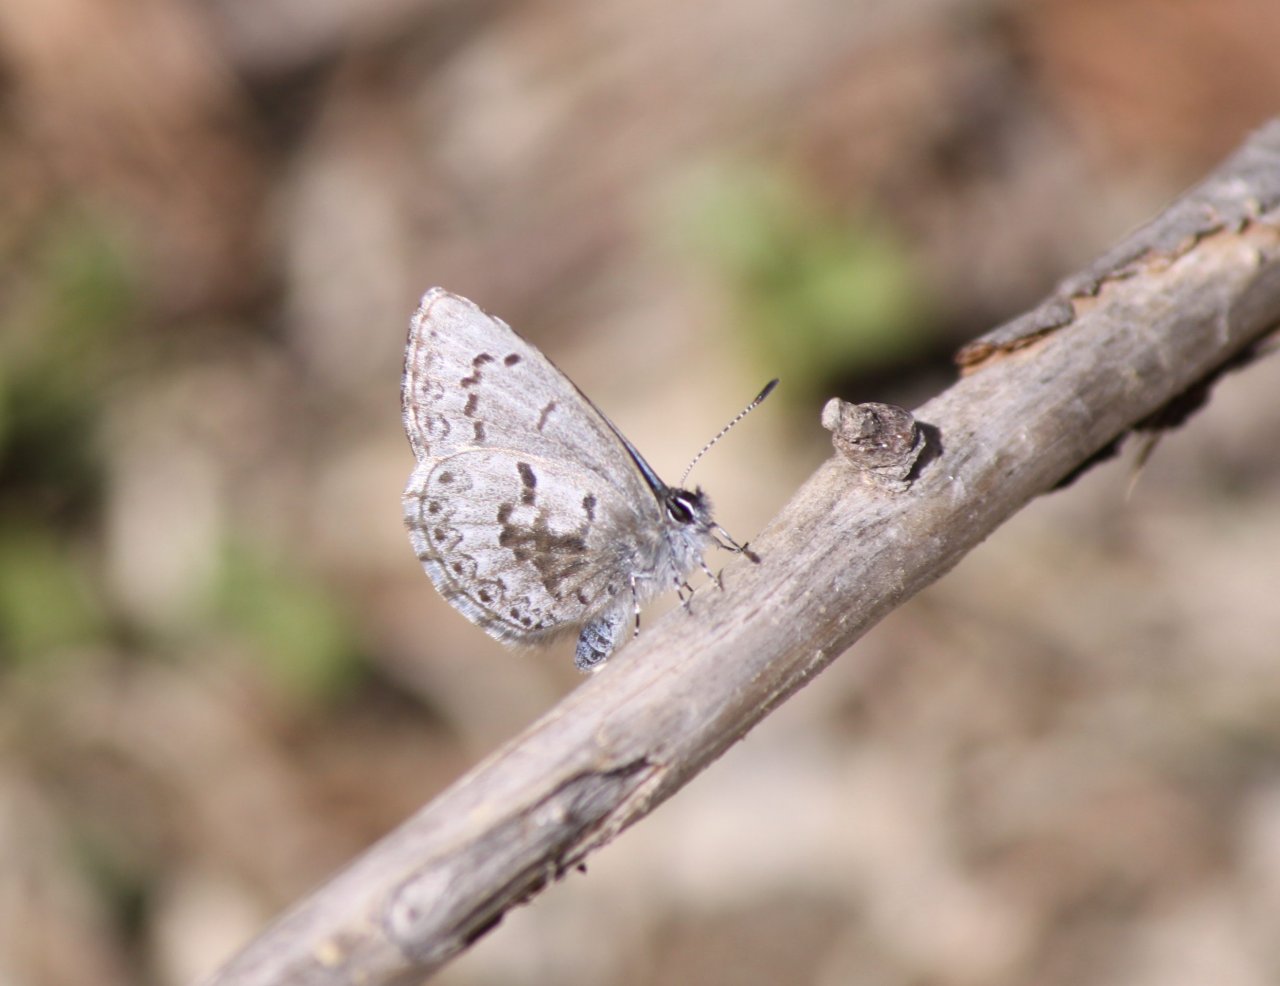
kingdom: Animalia
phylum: Arthropoda
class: Insecta
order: Lepidoptera
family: Lycaenidae
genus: Celastrina
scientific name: Celastrina lucia
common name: Northern Spring Azure
